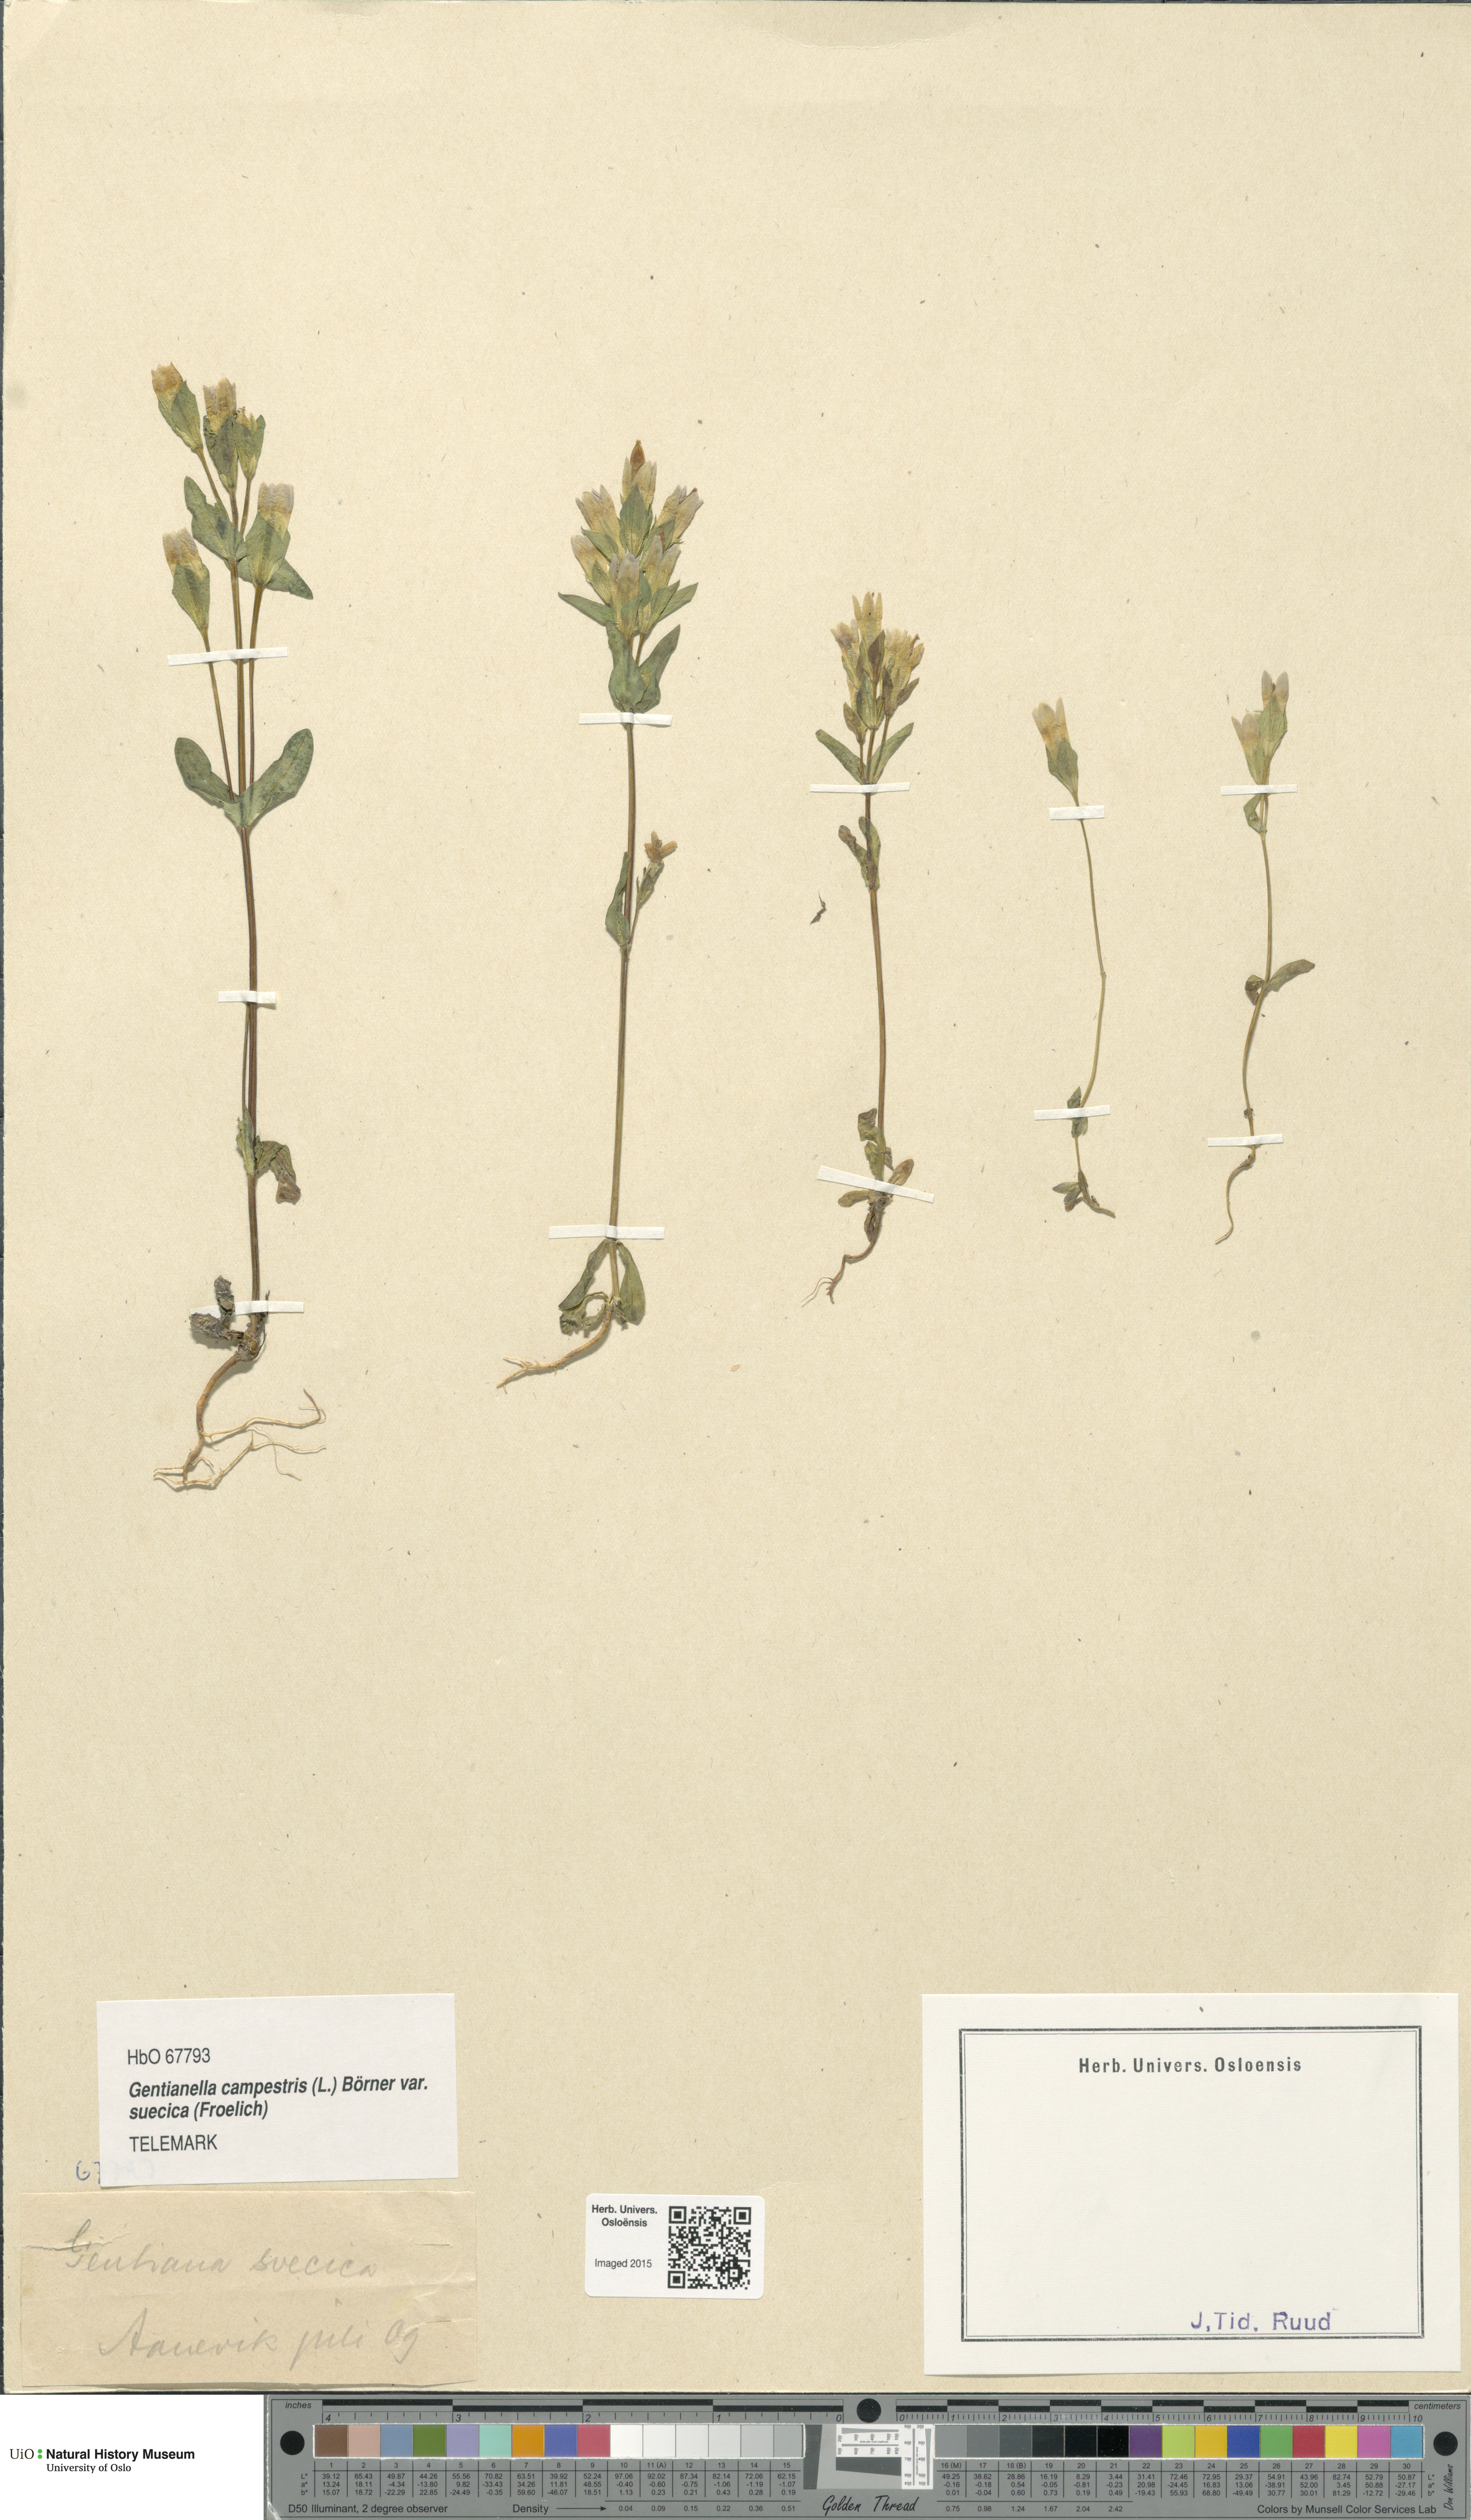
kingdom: Plantae
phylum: Tracheophyta
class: Magnoliopsida
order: Gentianales
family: Gentianaceae
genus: Gentianella
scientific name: Gentianella campestris
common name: Field gentian
